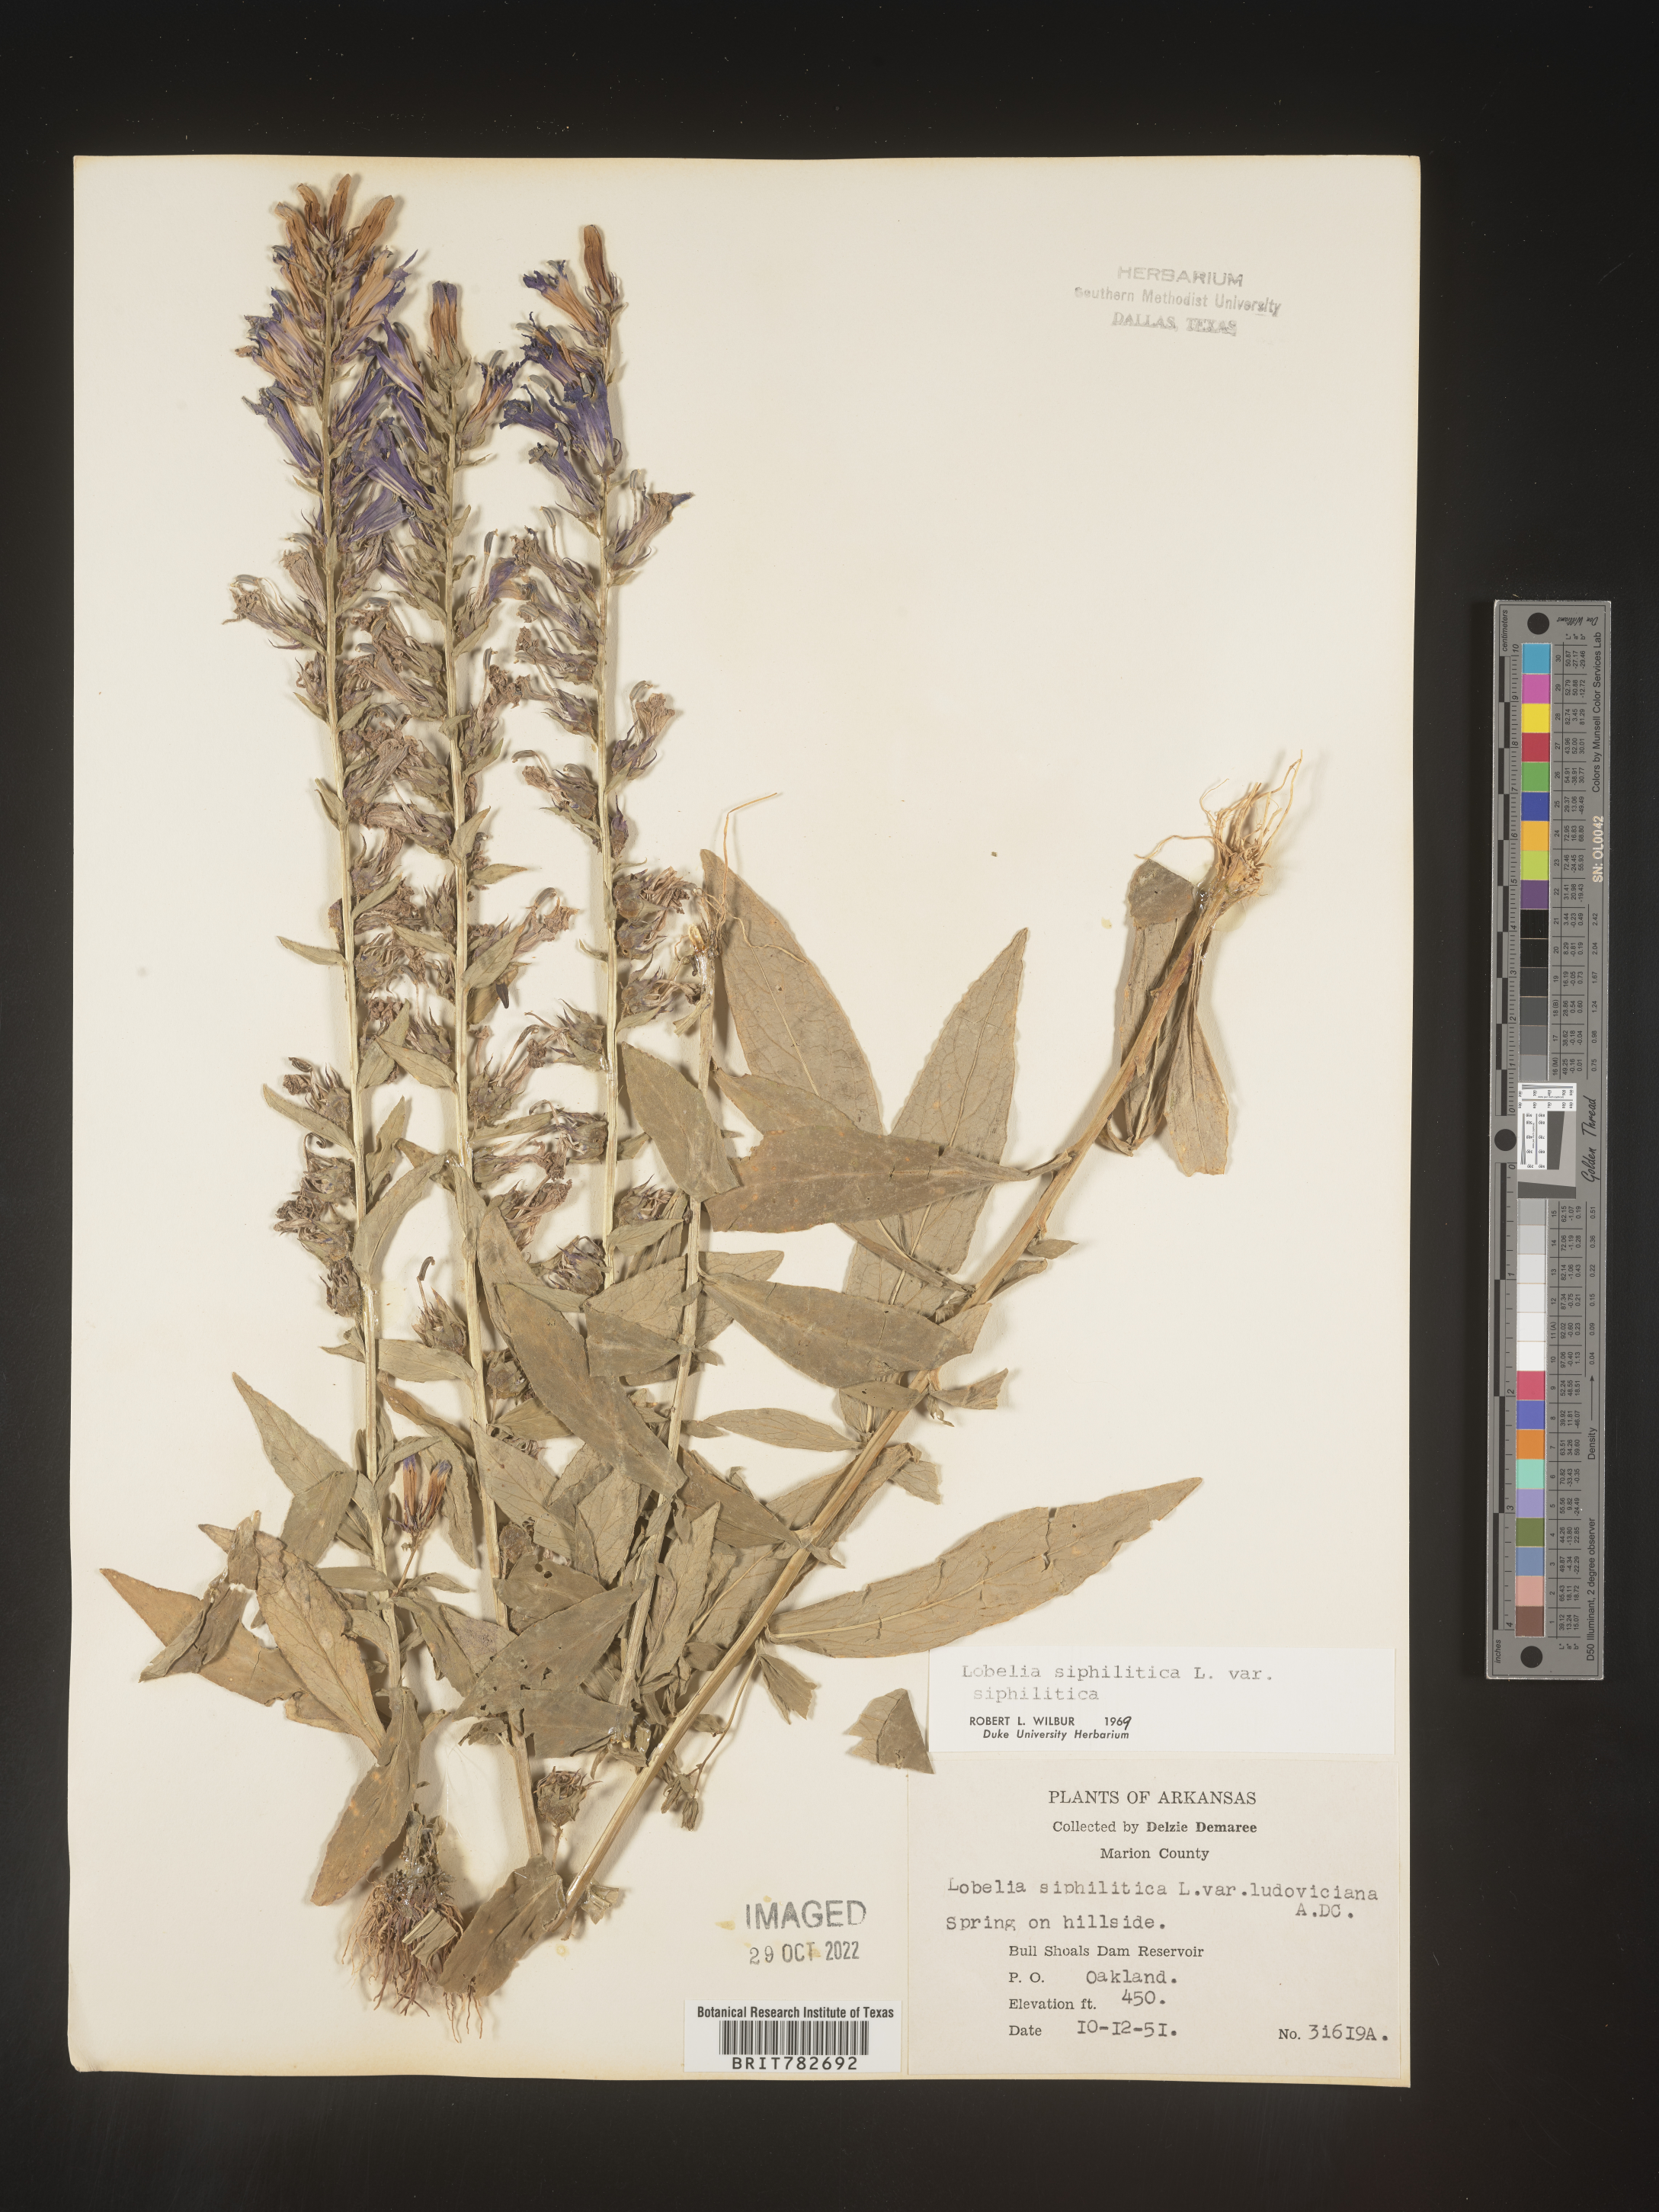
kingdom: Plantae
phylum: Tracheophyta
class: Magnoliopsida
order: Asterales
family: Campanulaceae
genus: Lobelia
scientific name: Lobelia siphilitica
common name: Great lobelia
